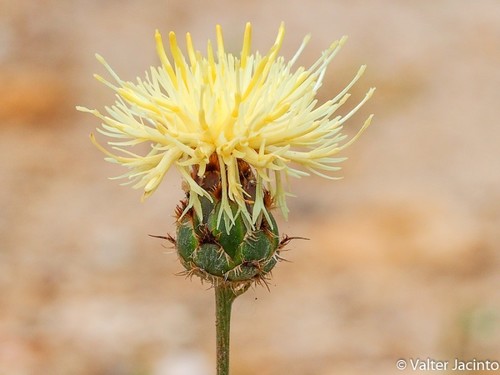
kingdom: Plantae
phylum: Tracheophyta
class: Magnoliopsida
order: Asterales
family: Asteraceae
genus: Centaurea
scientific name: Centaurea occasus
